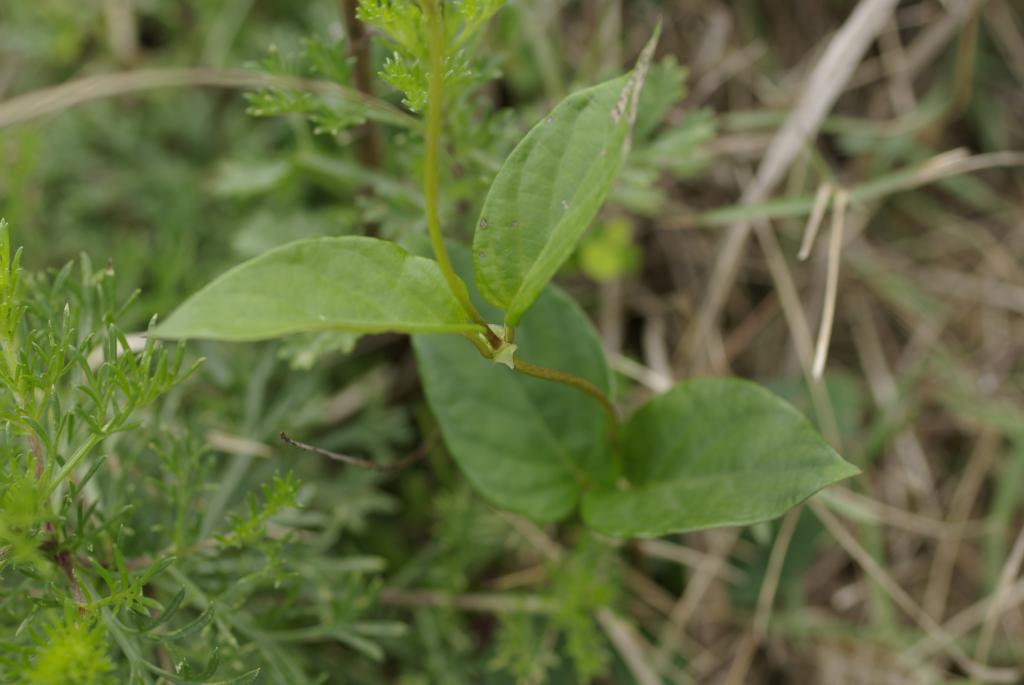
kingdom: Plantae
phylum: Tracheophyta
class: Magnoliopsida
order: Gentianales
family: Rubiaceae
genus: Paederia
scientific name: Paederia foetida
